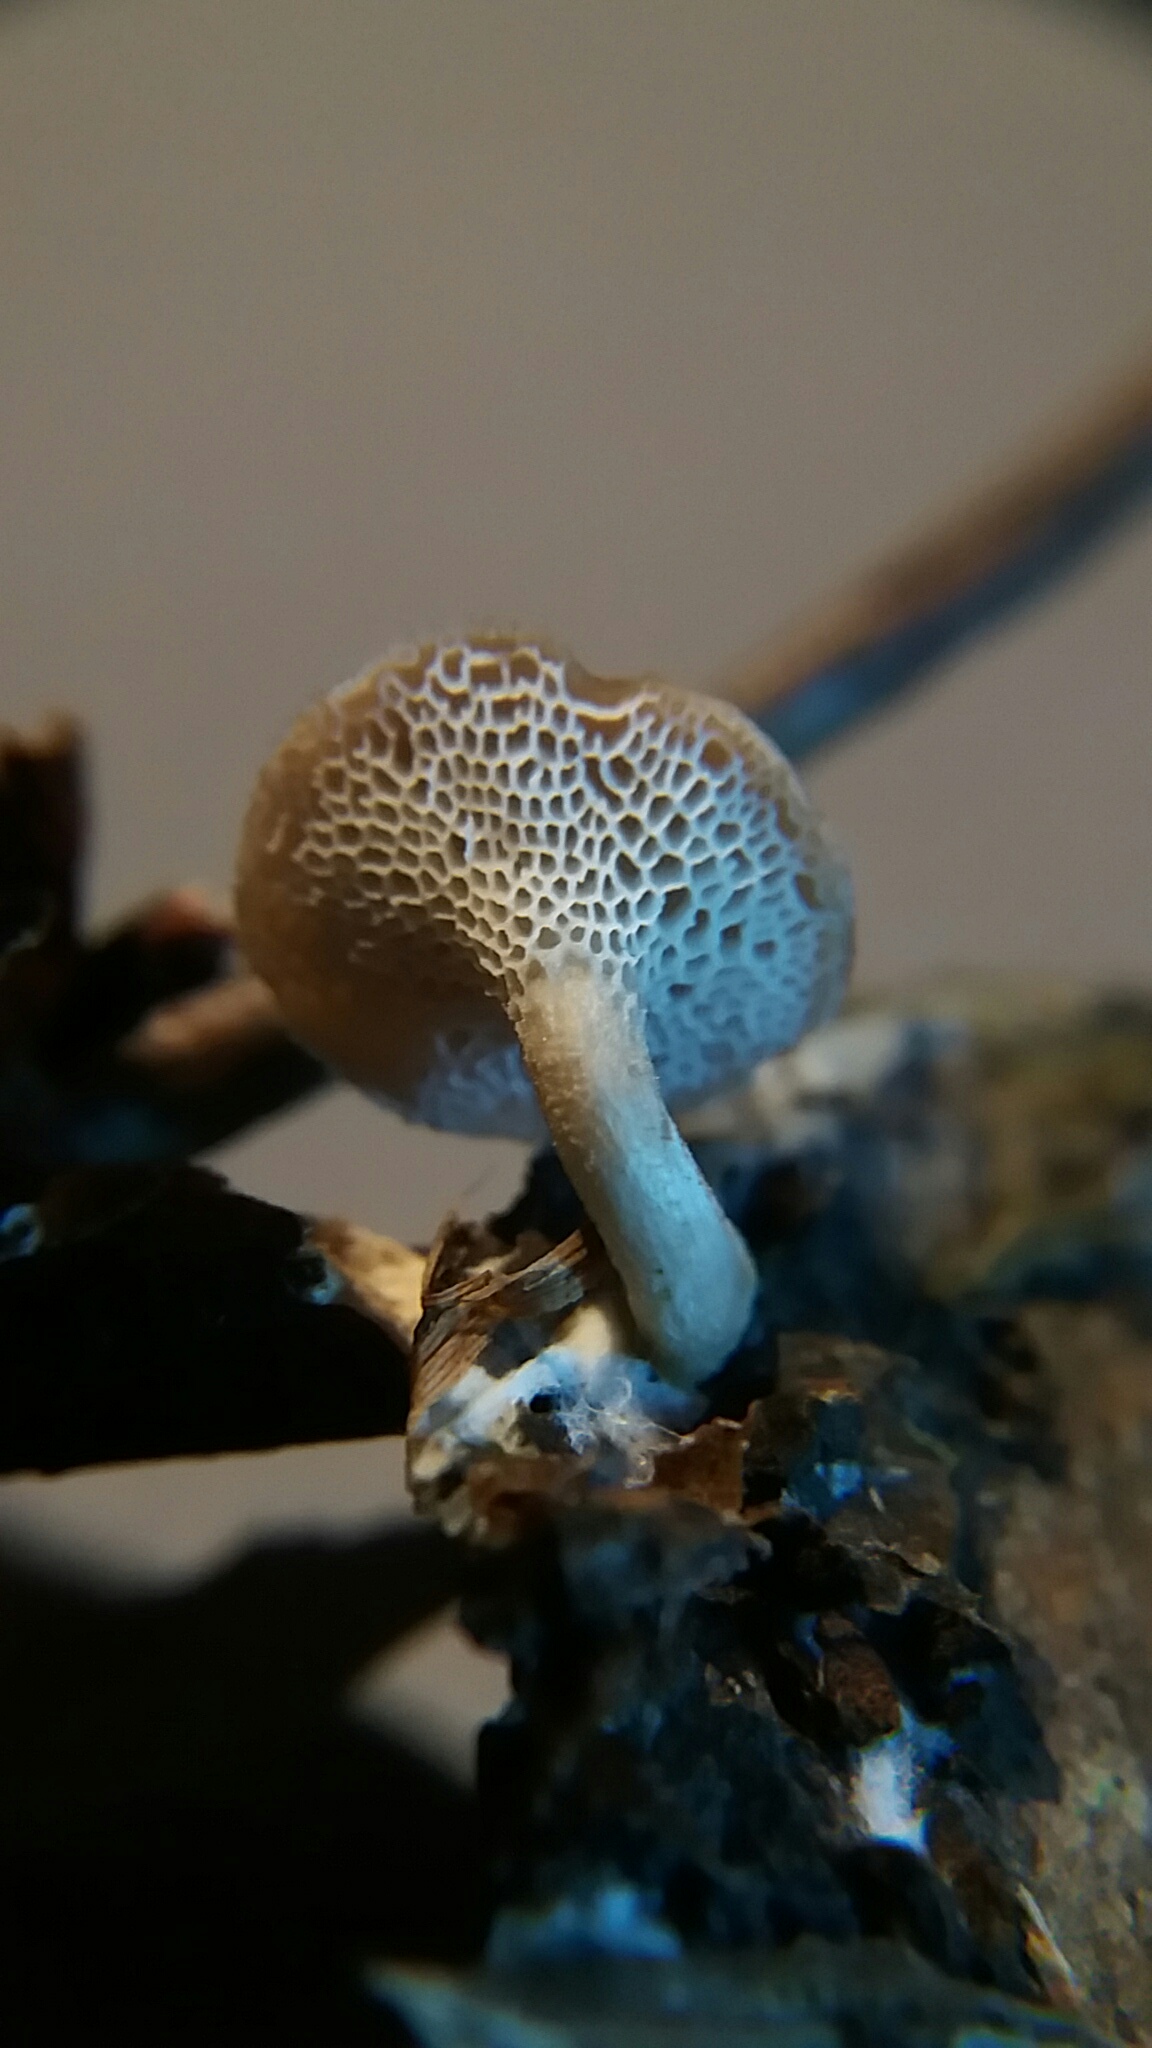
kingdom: Fungi
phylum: Basidiomycota
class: Agaricomycetes
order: Polyporales
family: Polyporaceae
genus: Lentinus
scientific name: Lentinus brumalis
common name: vinter-stilkporesvamp
